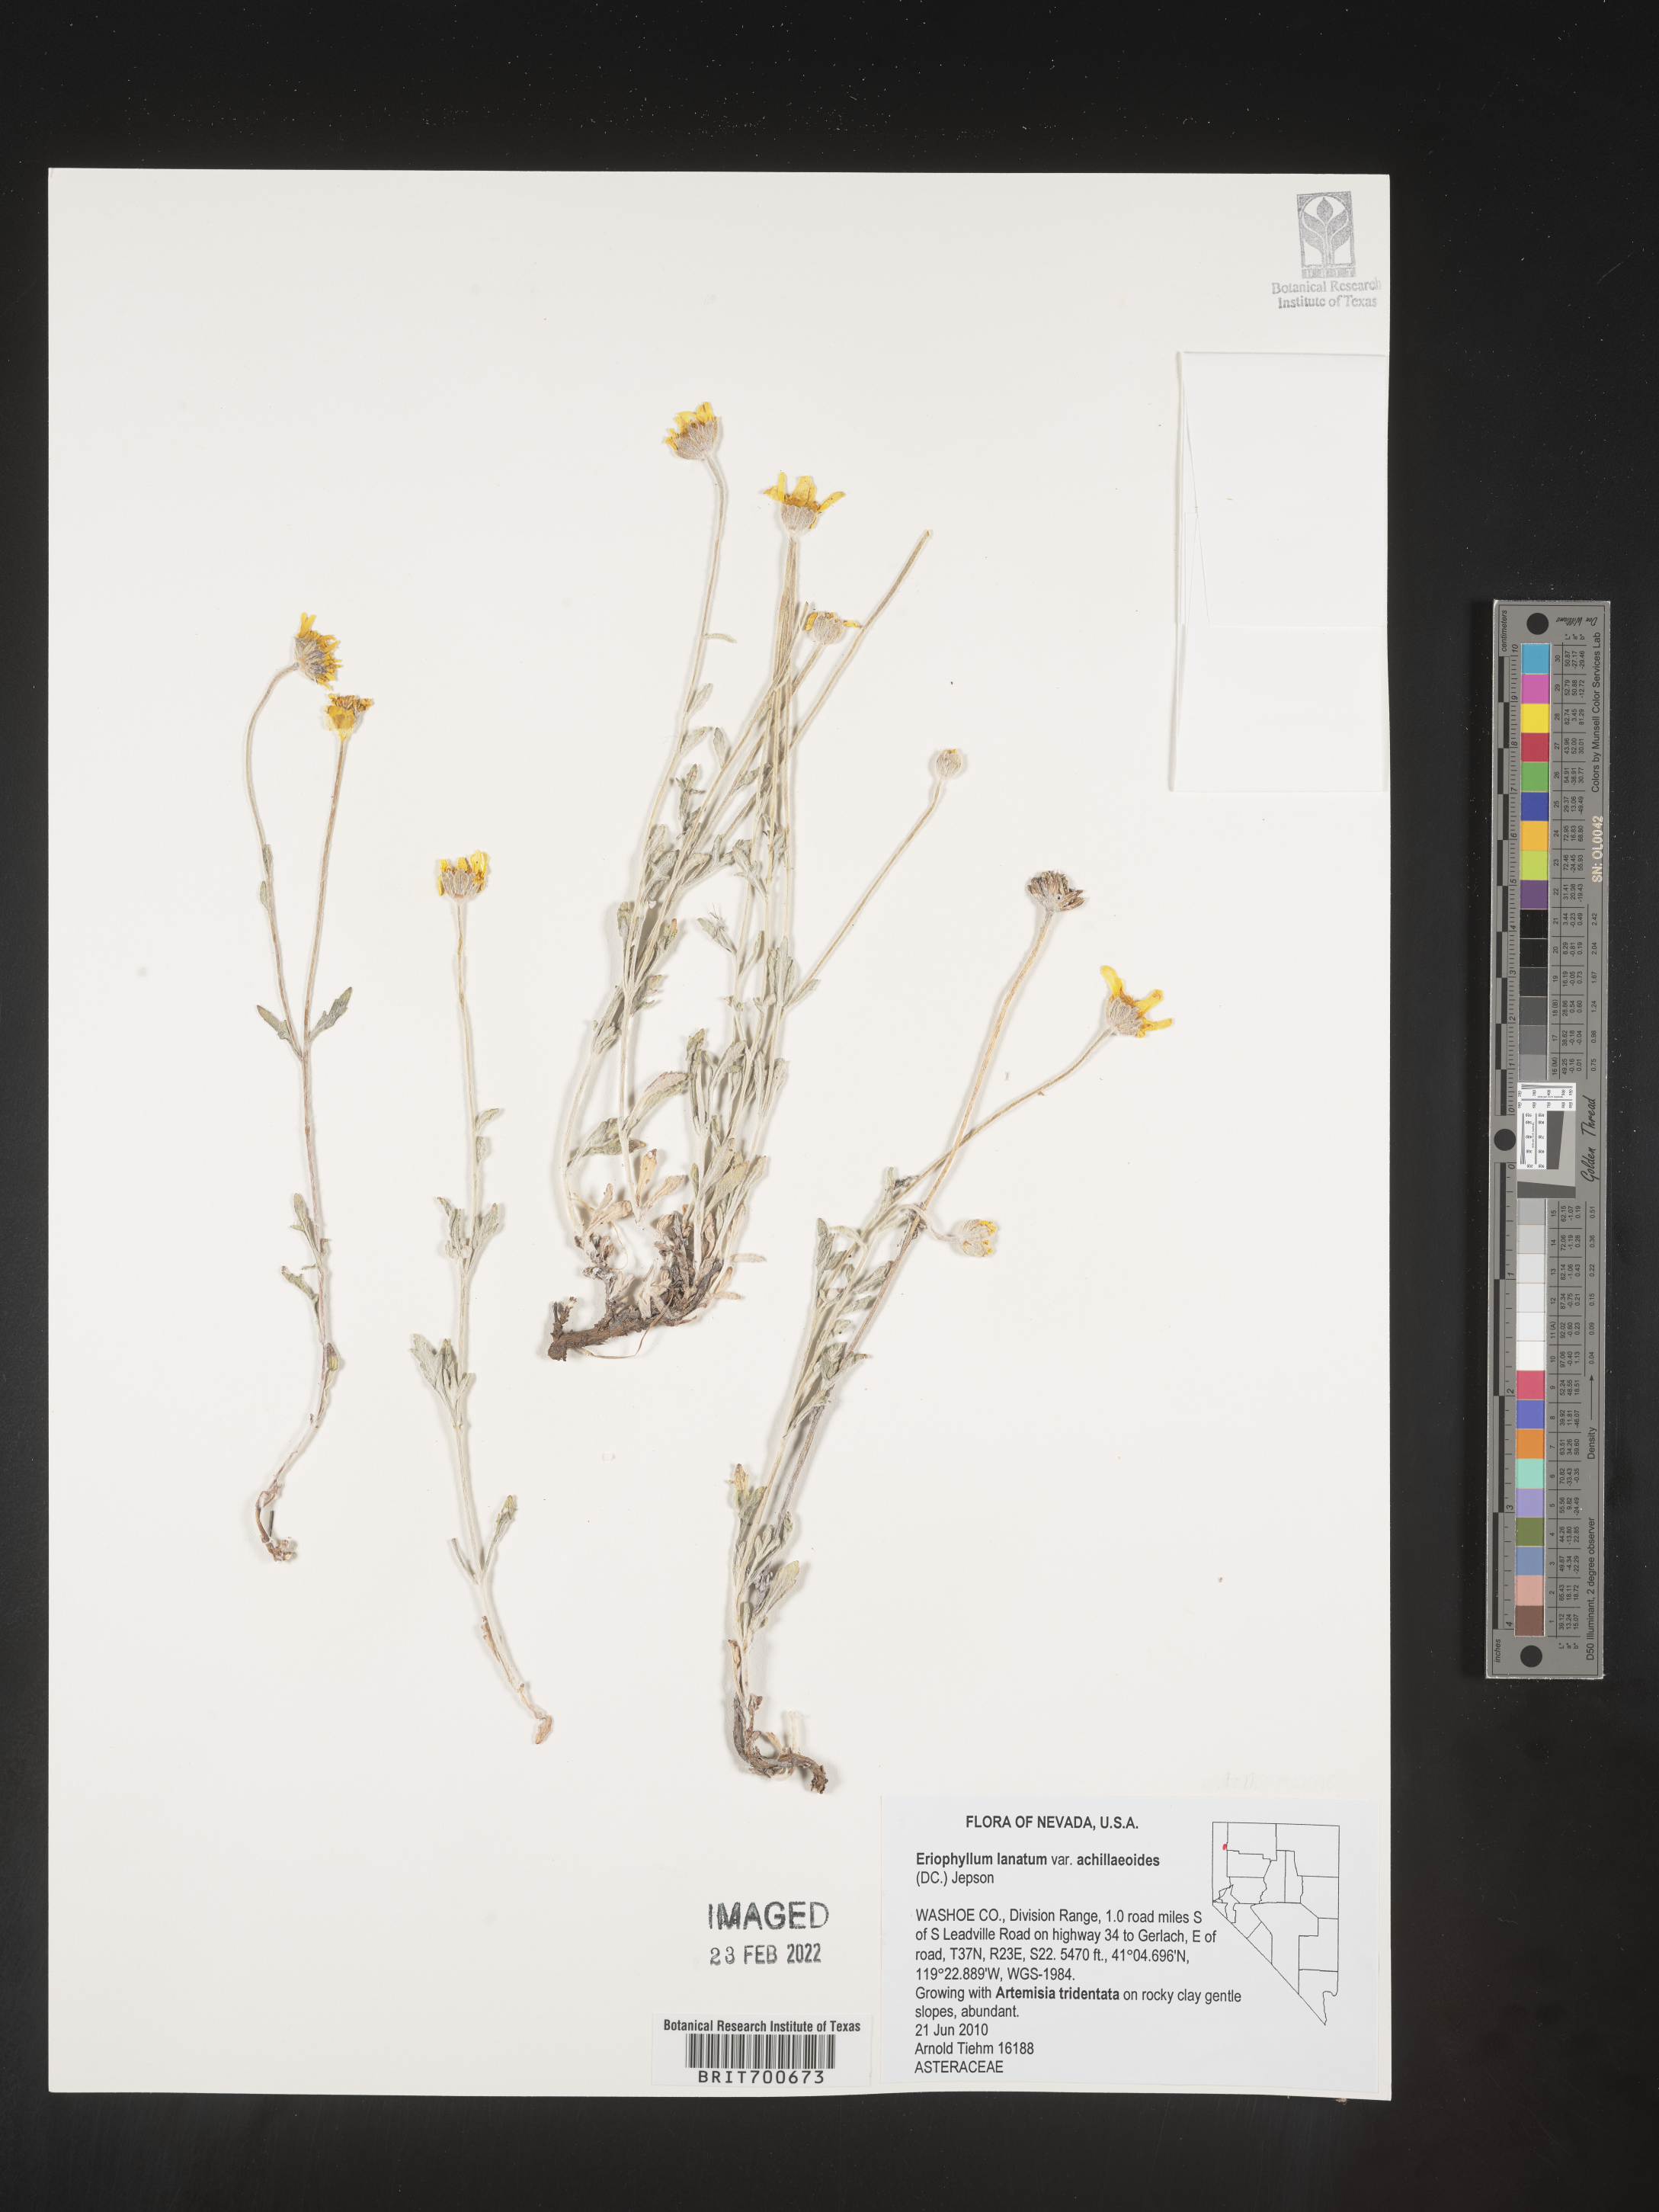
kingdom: Plantae
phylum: Tracheophyta
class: Magnoliopsida
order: Asterales
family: Asteraceae
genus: Eriophyllum
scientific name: Eriophyllum lanatum
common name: Common woolly-sunflower
